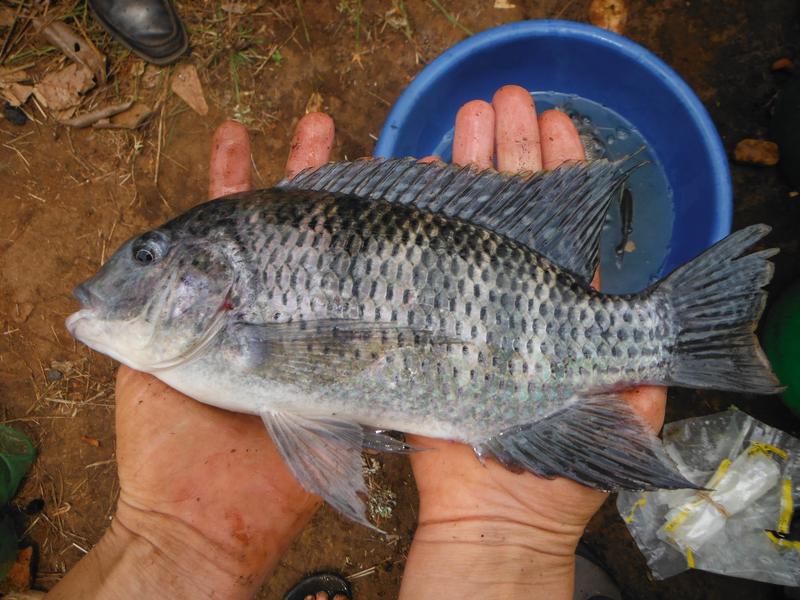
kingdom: Animalia
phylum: Chordata
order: Perciformes
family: Cichlidae
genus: Coptodon
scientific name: Coptodon rendalli
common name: Redbreast tilapia
